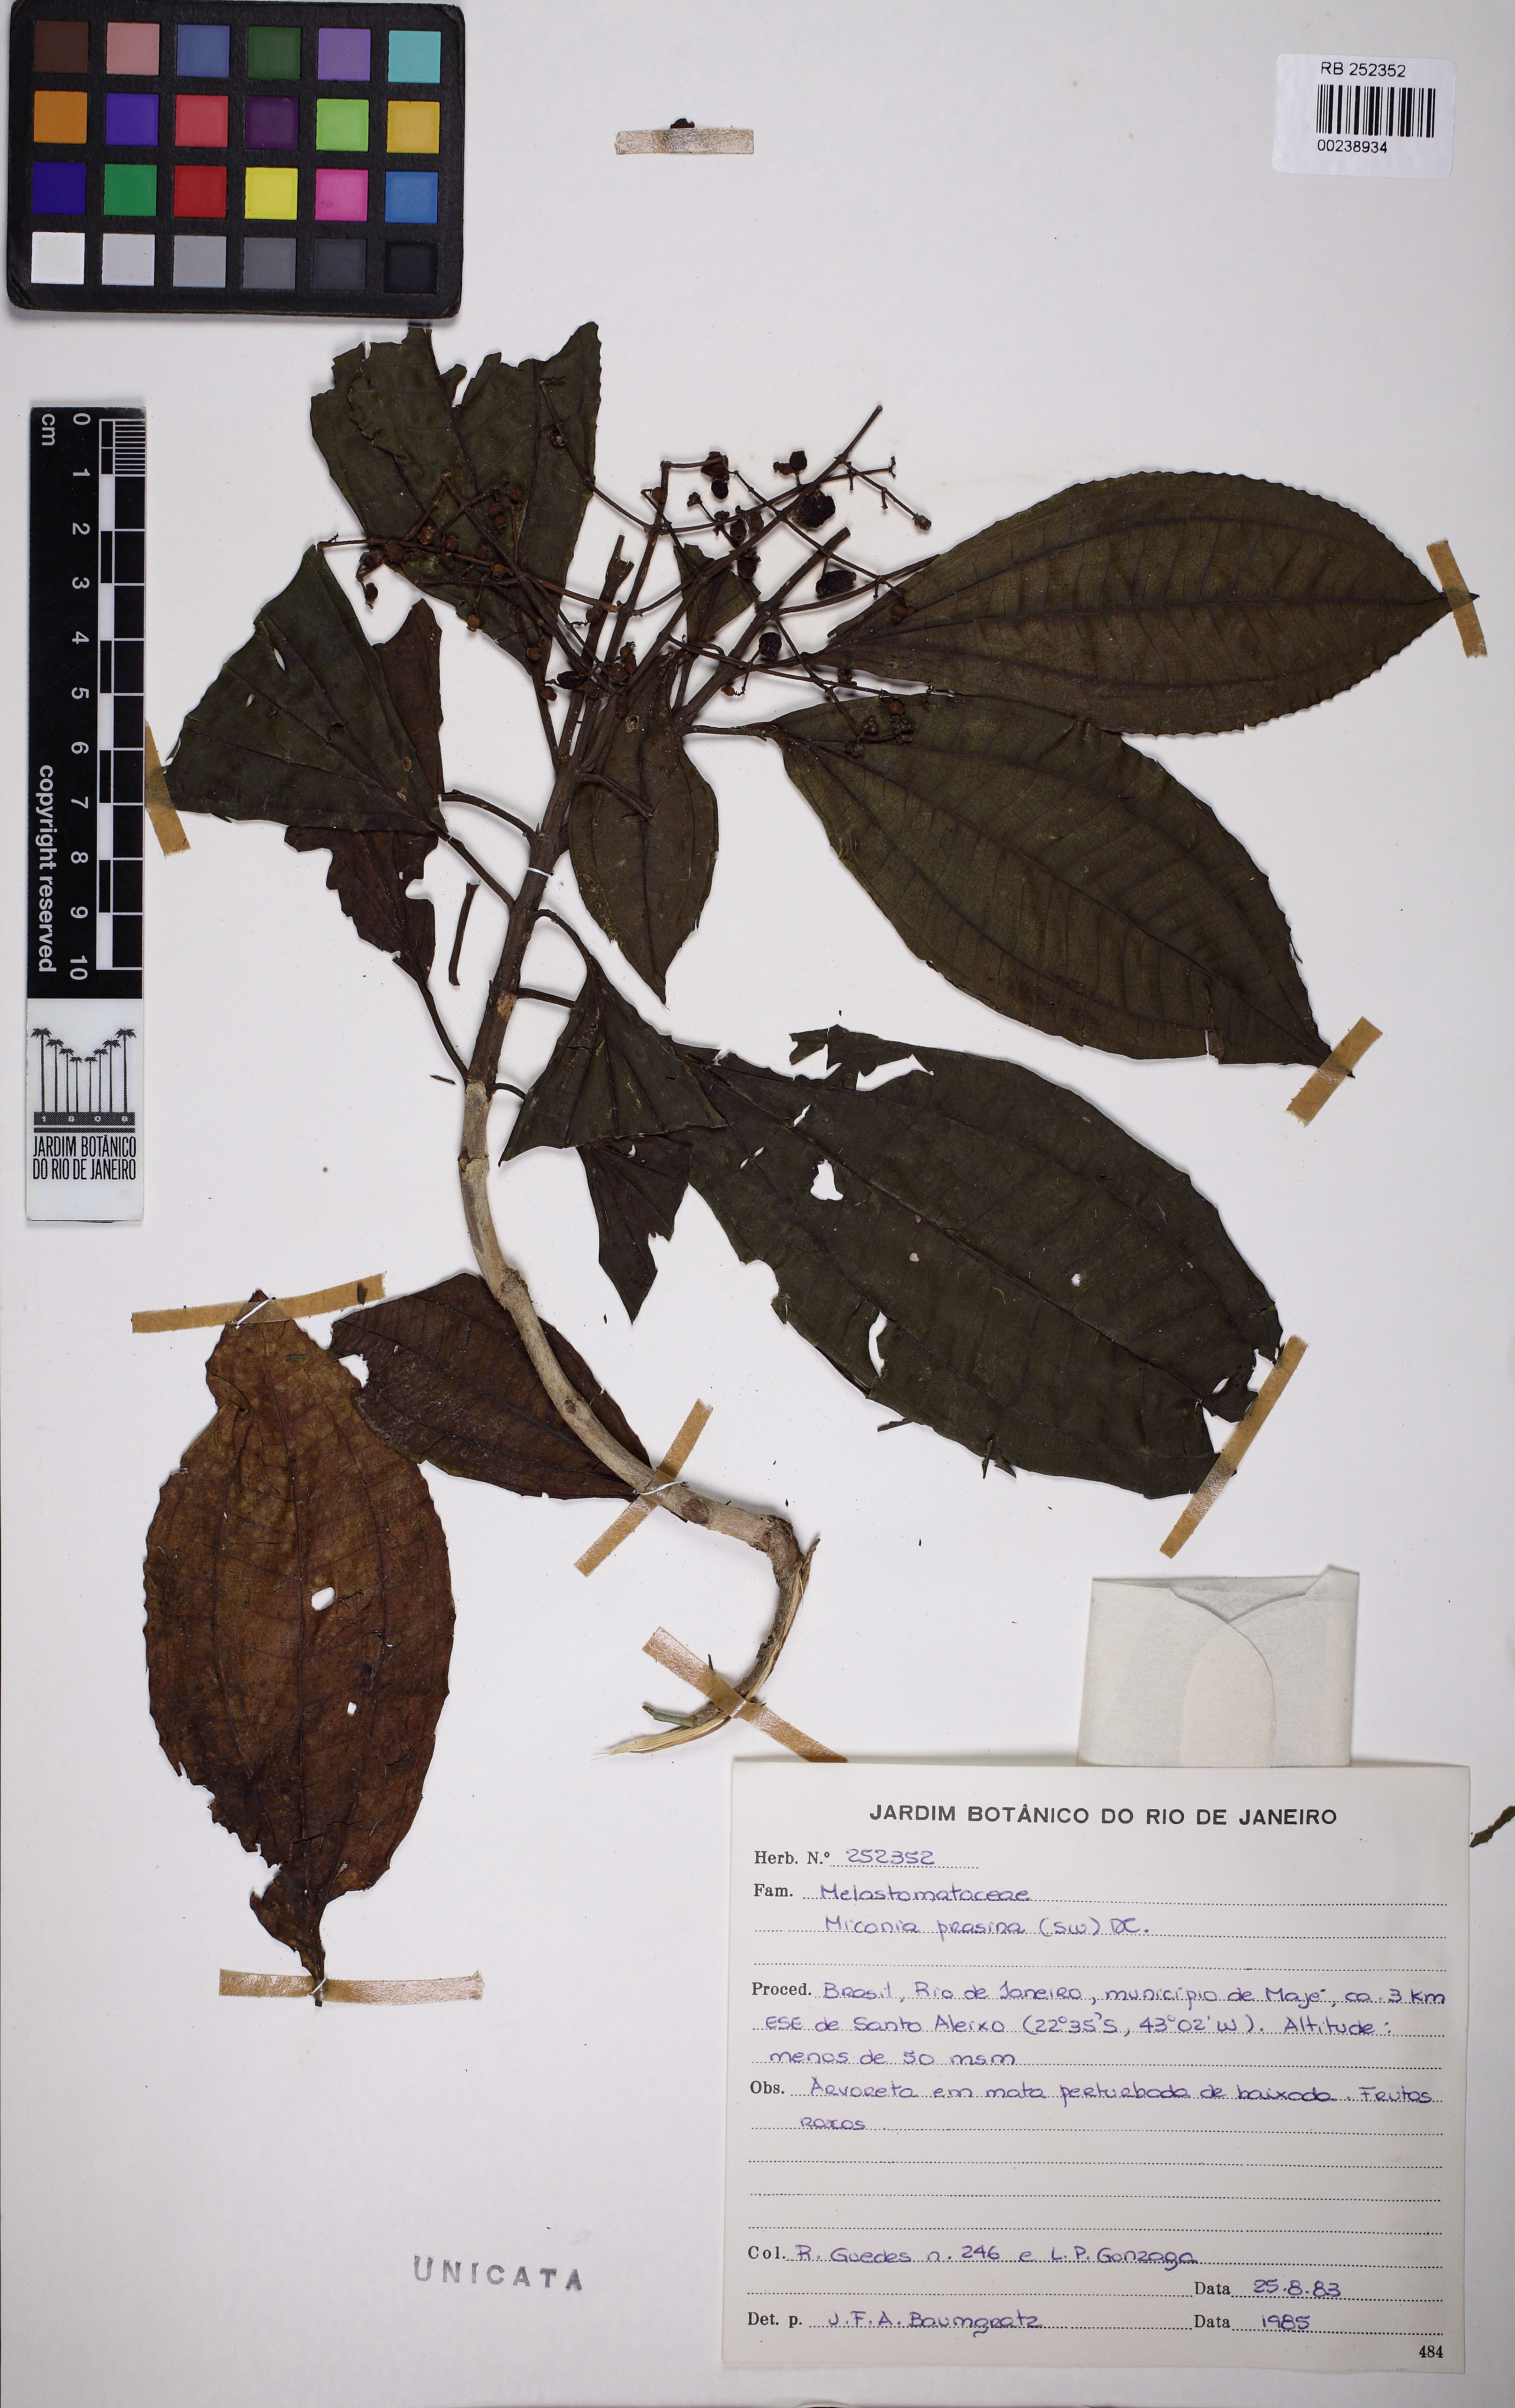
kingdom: Plantae
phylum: Tracheophyta
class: Magnoliopsida
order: Myrtales
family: Melastomataceae
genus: Miconia
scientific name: Miconia prasina
